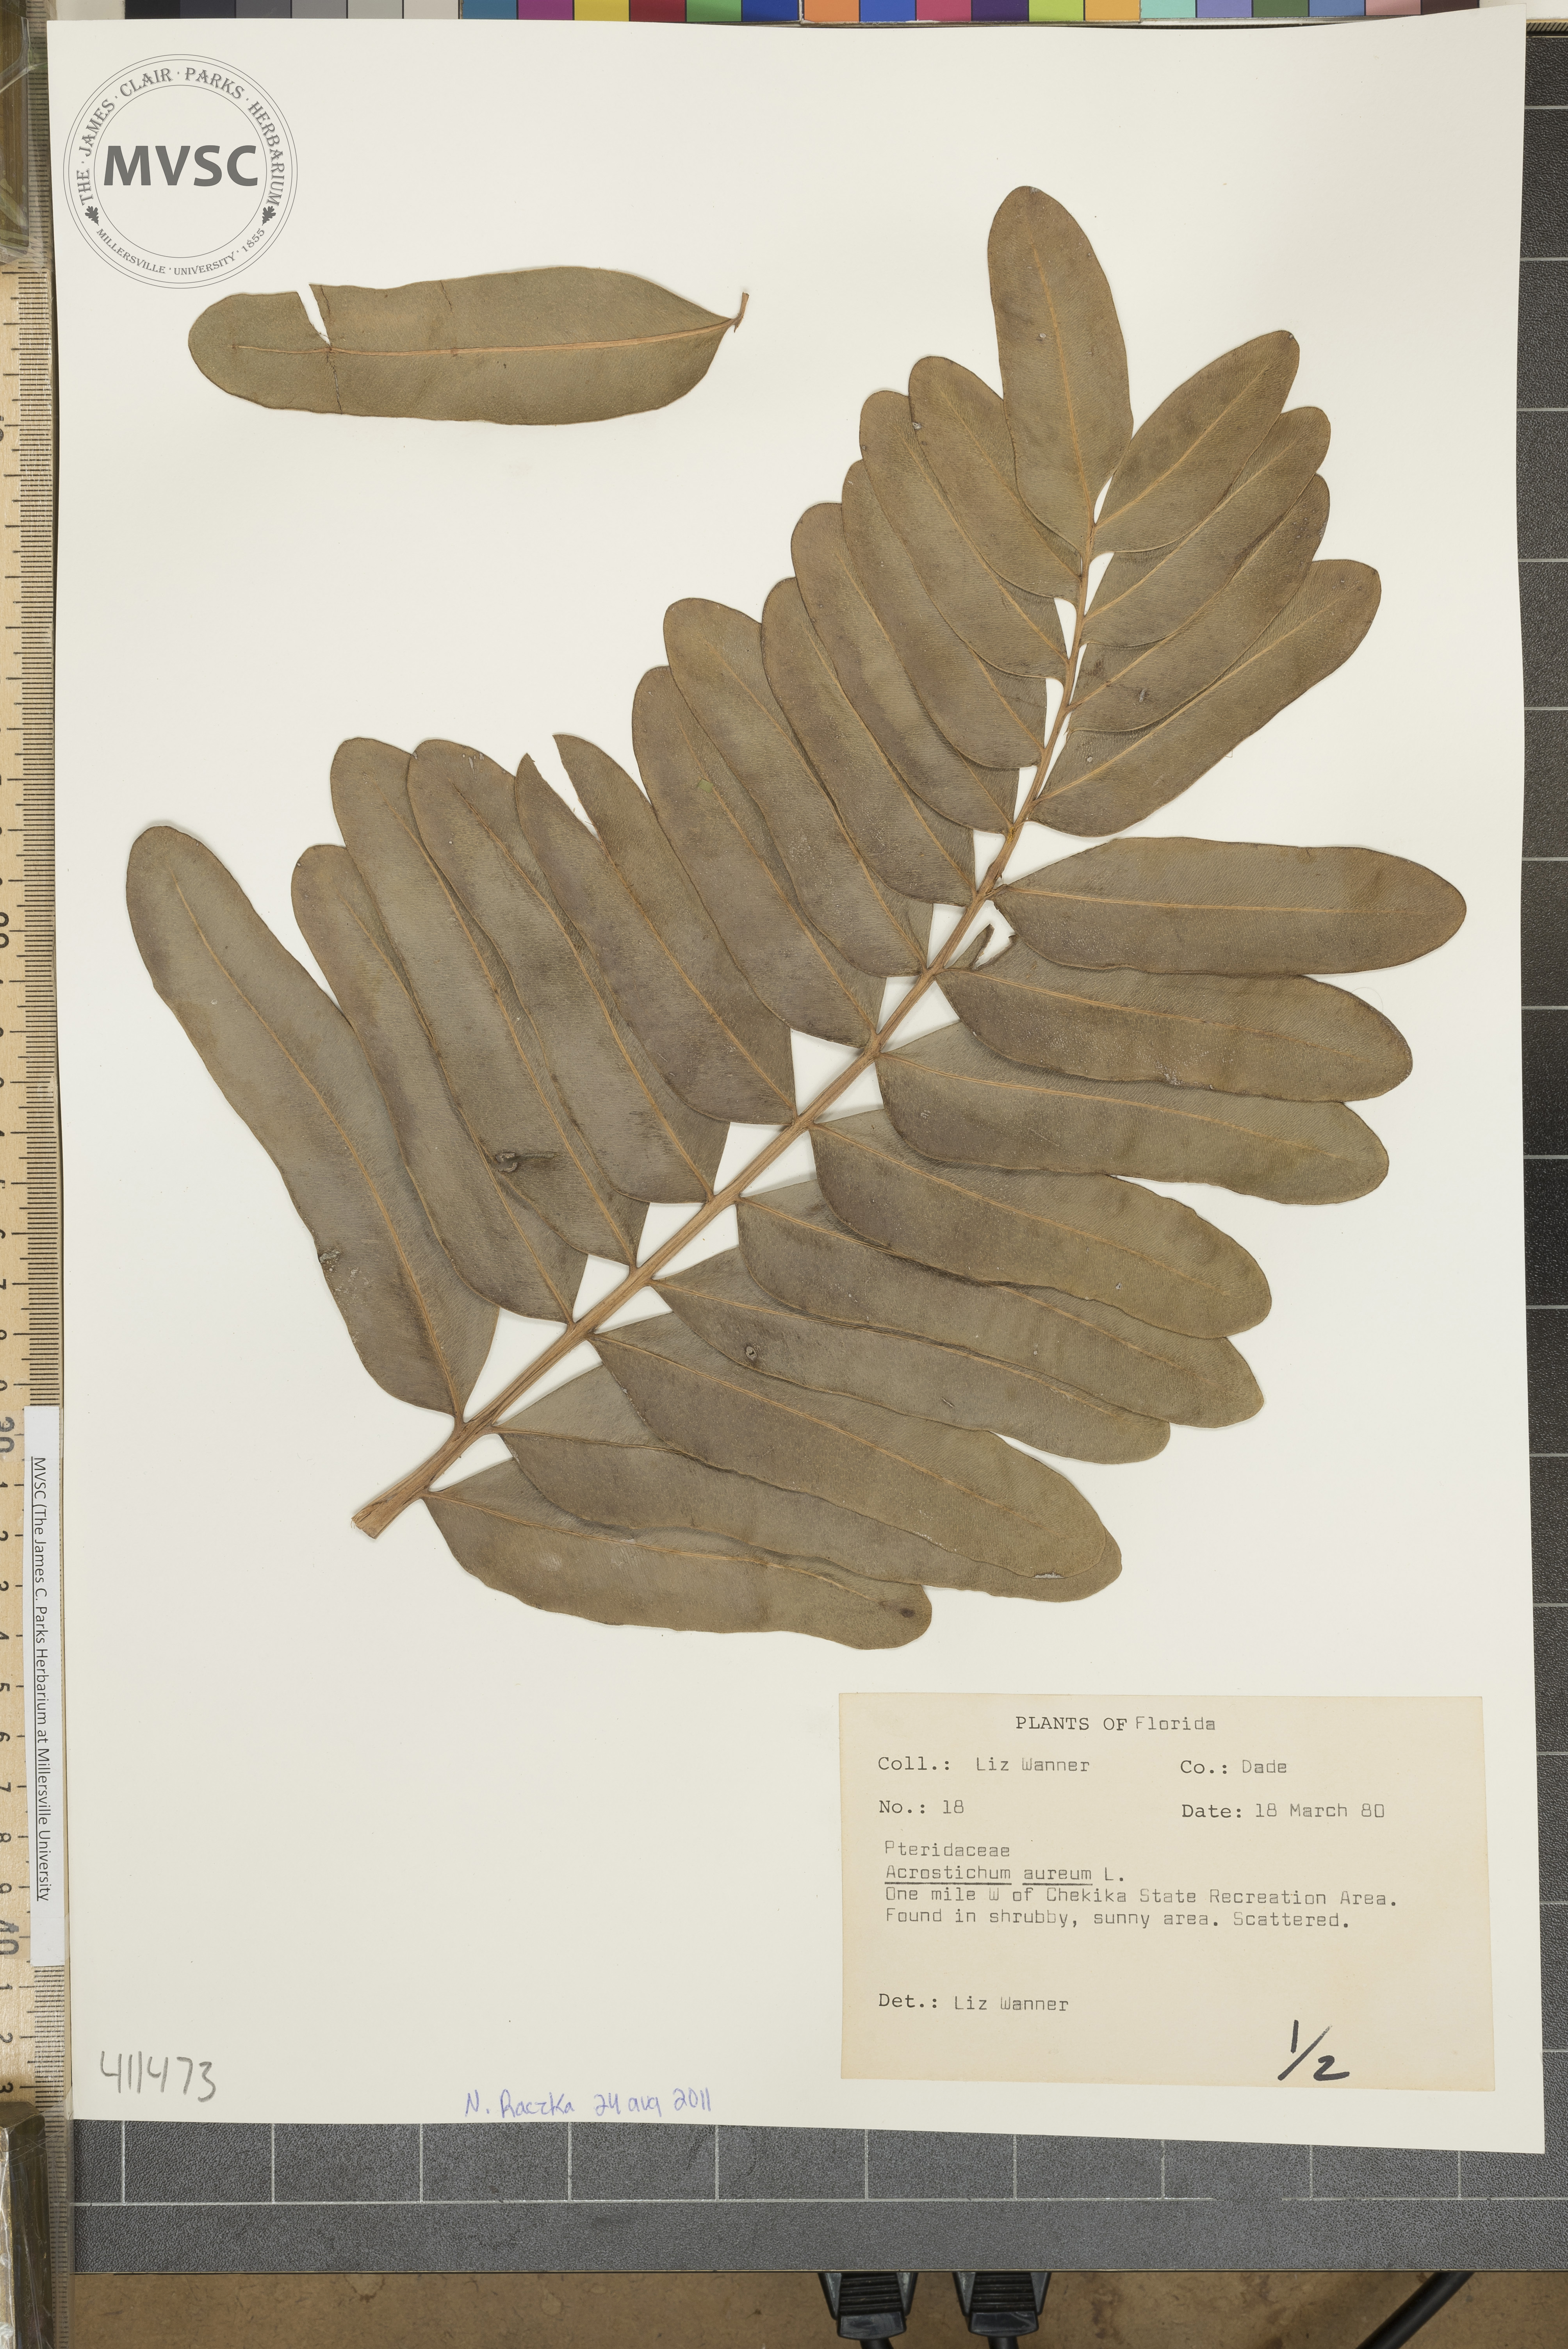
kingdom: Plantae
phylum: Tracheophyta
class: Polypodiopsida
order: Polypodiales
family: Pteridaceae
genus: Acrostichum
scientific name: Acrostichum aureum
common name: Leather fern
